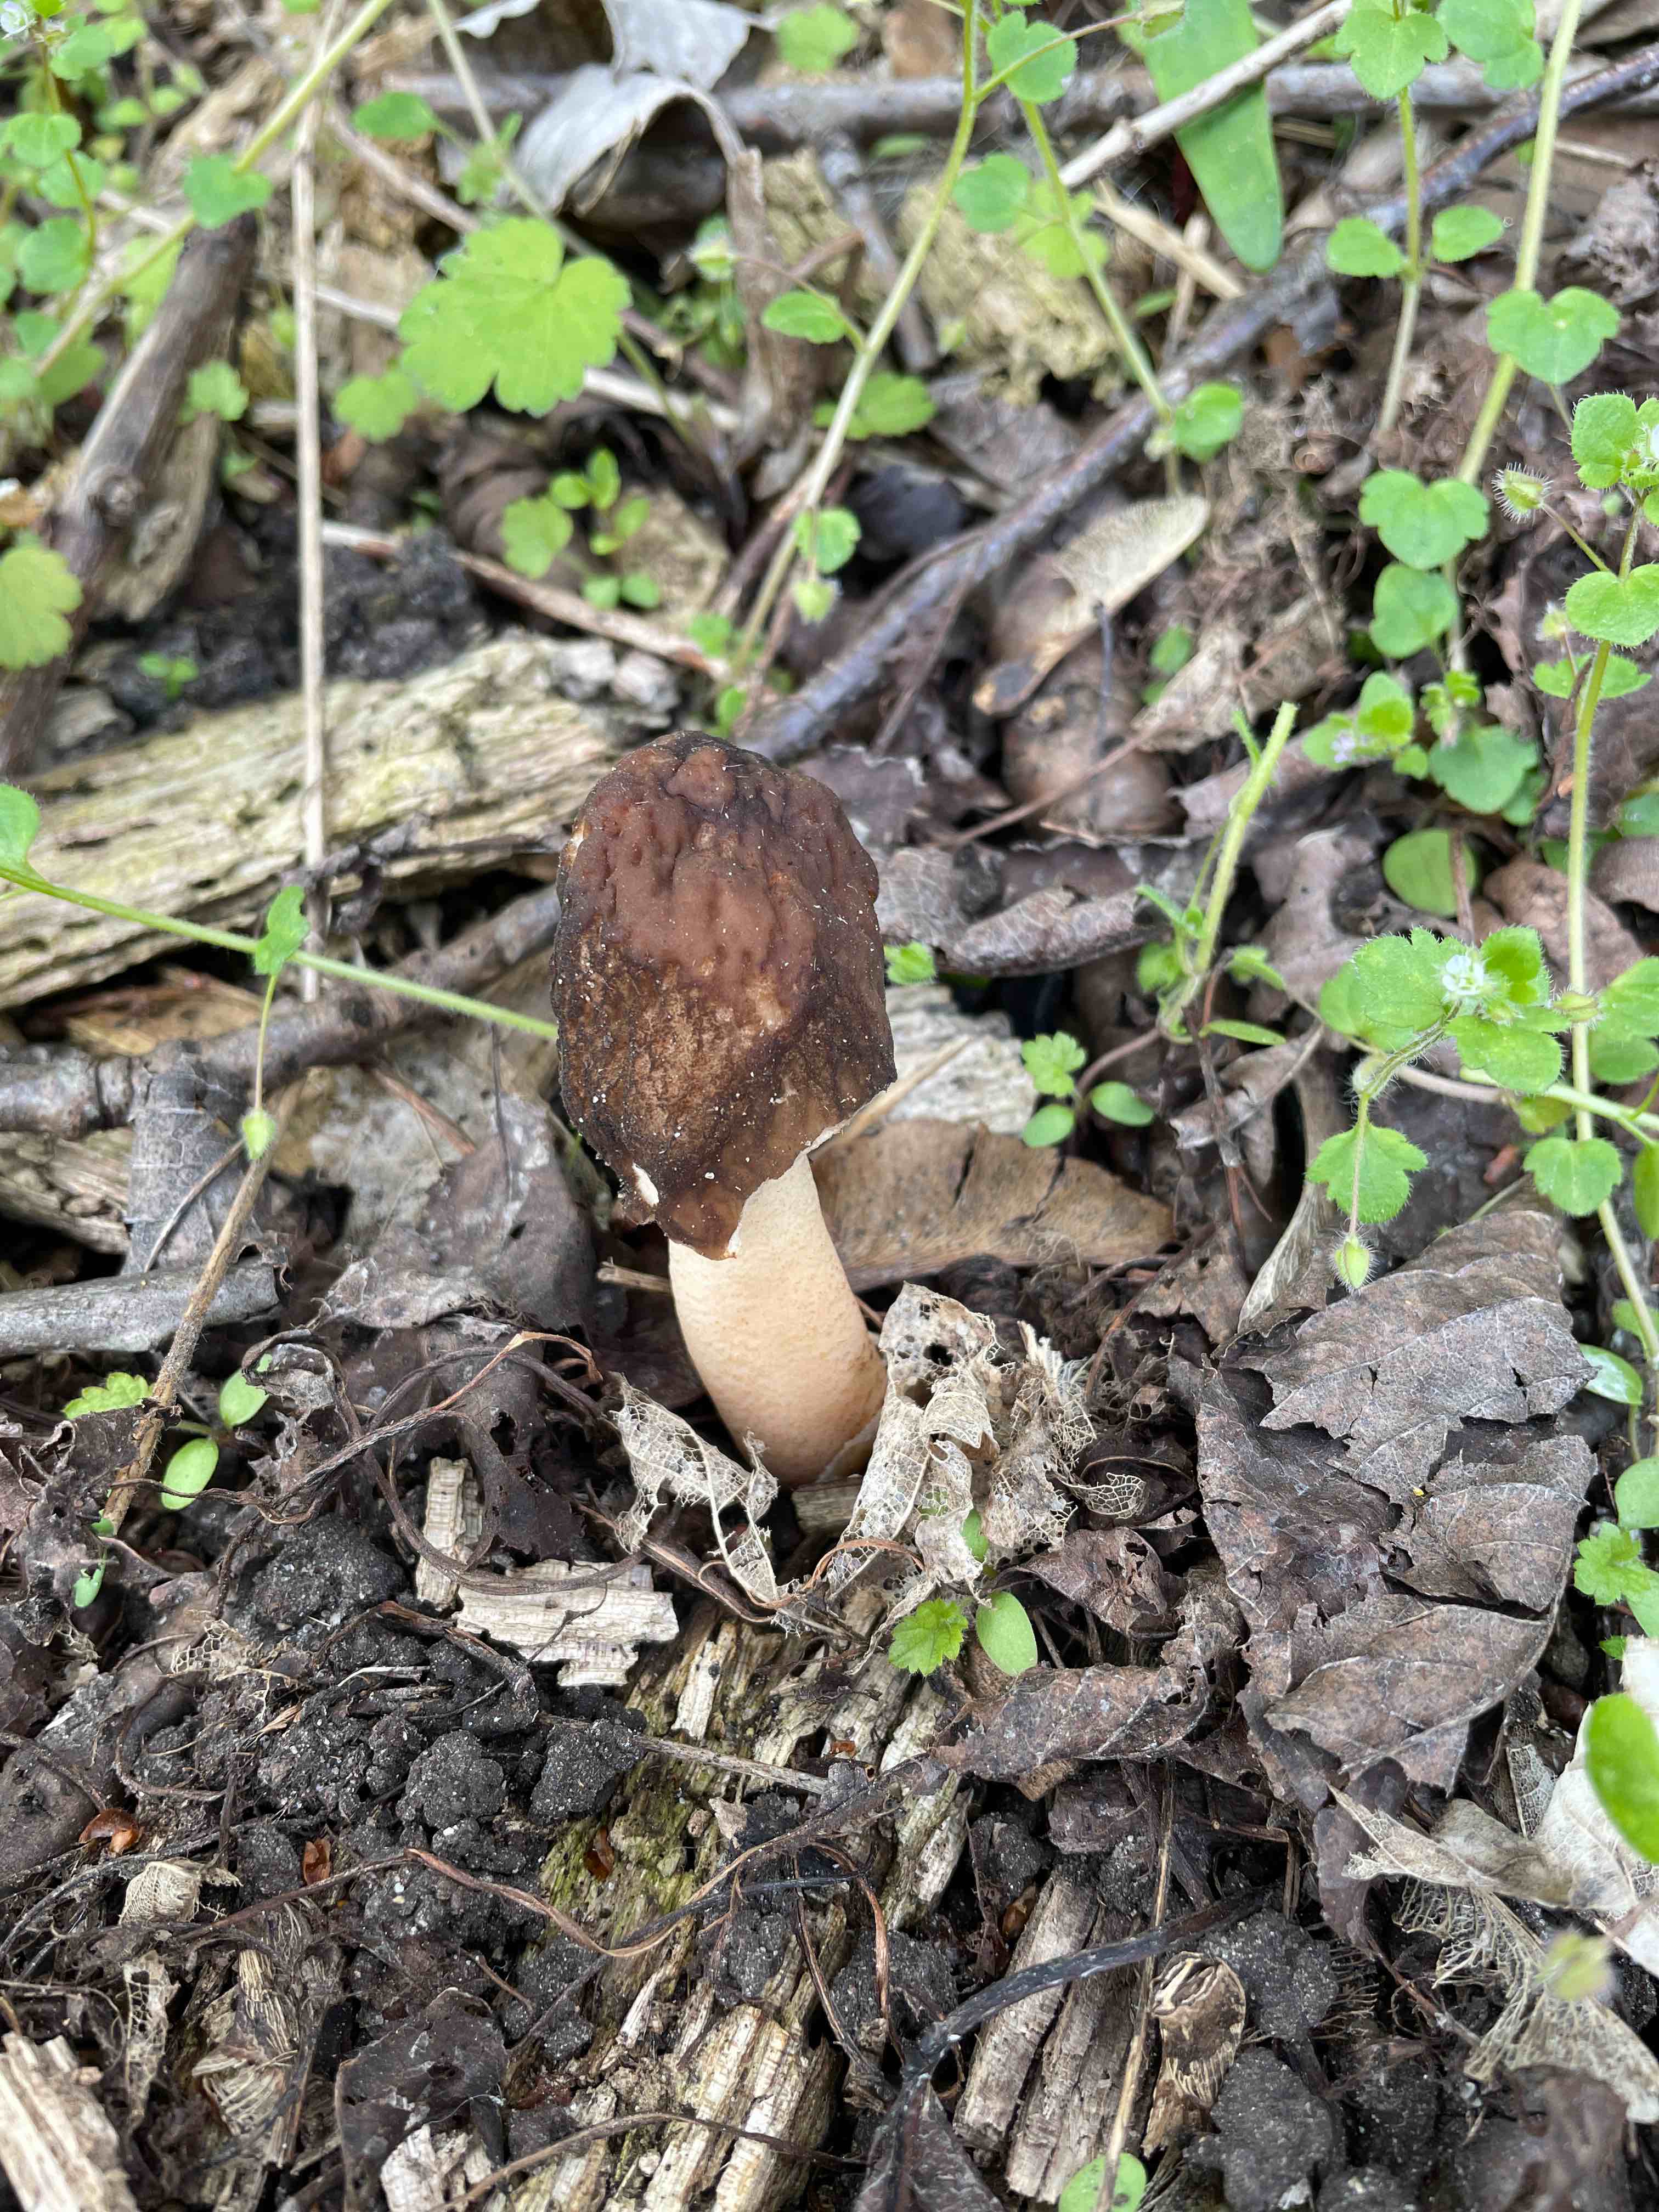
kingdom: Fungi
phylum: Ascomycota
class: Pezizomycetes
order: Pezizales
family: Morchellaceae
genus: Verpa
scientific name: Verpa conica
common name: glat klokkemorkel
